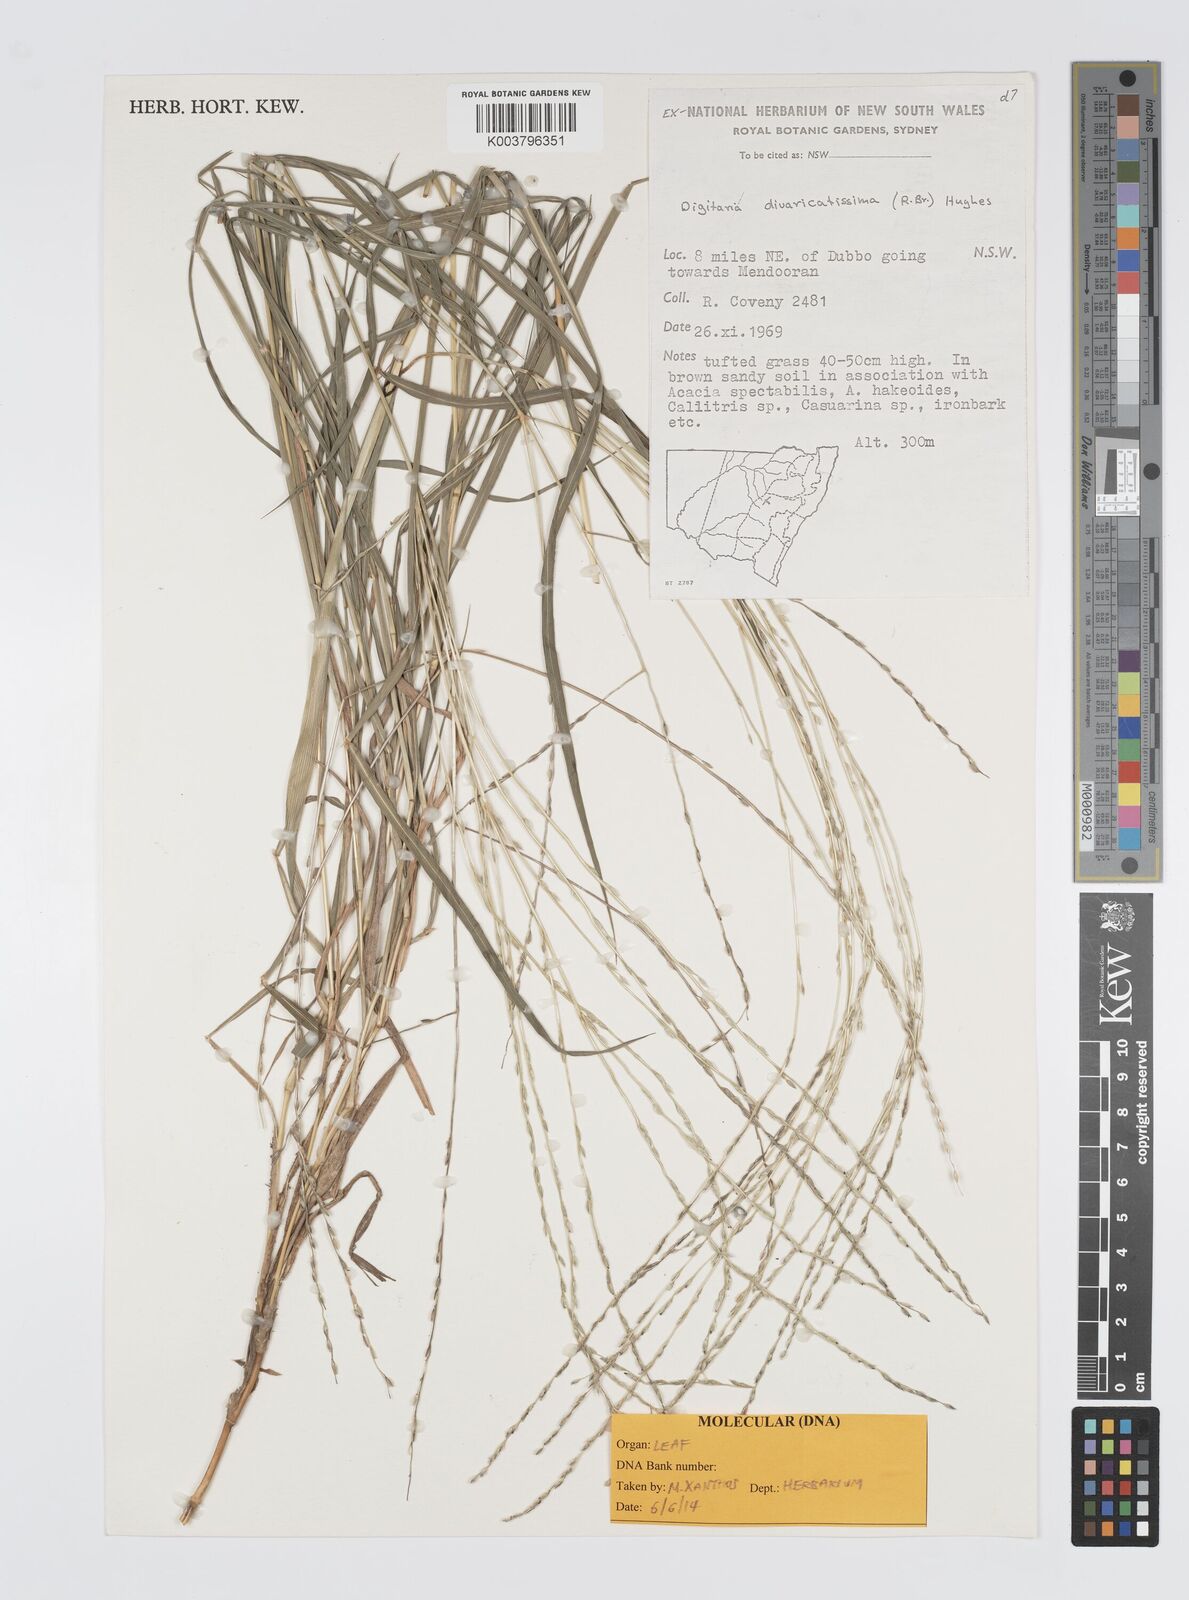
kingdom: Plantae
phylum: Tracheophyta
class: Liliopsida
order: Poales
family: Poaceae
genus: Digitaria
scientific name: Digitaria divaricatissima
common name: Crabgrass
